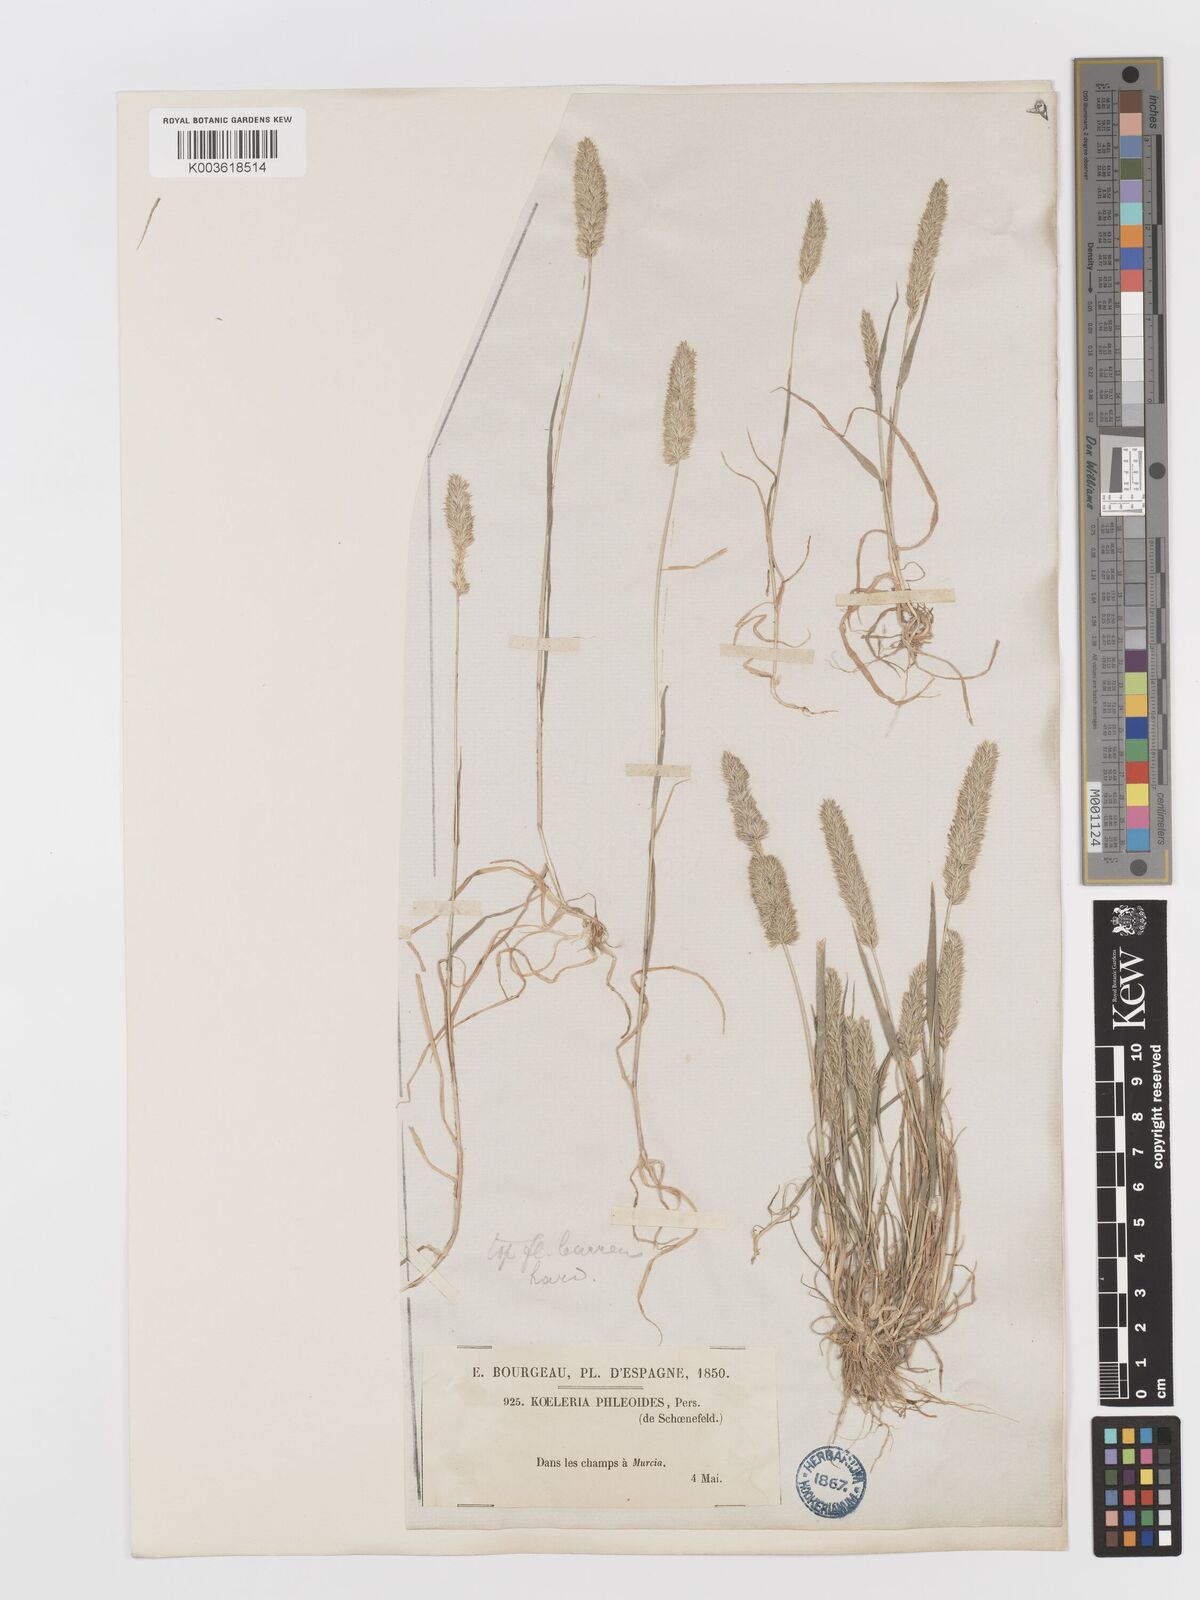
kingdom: Plantae
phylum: Tracheophyta
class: Liliopsida
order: Poales
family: Poaceae
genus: Rostraria
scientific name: Rostraria cristata
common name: Mediterranean hair-grass
